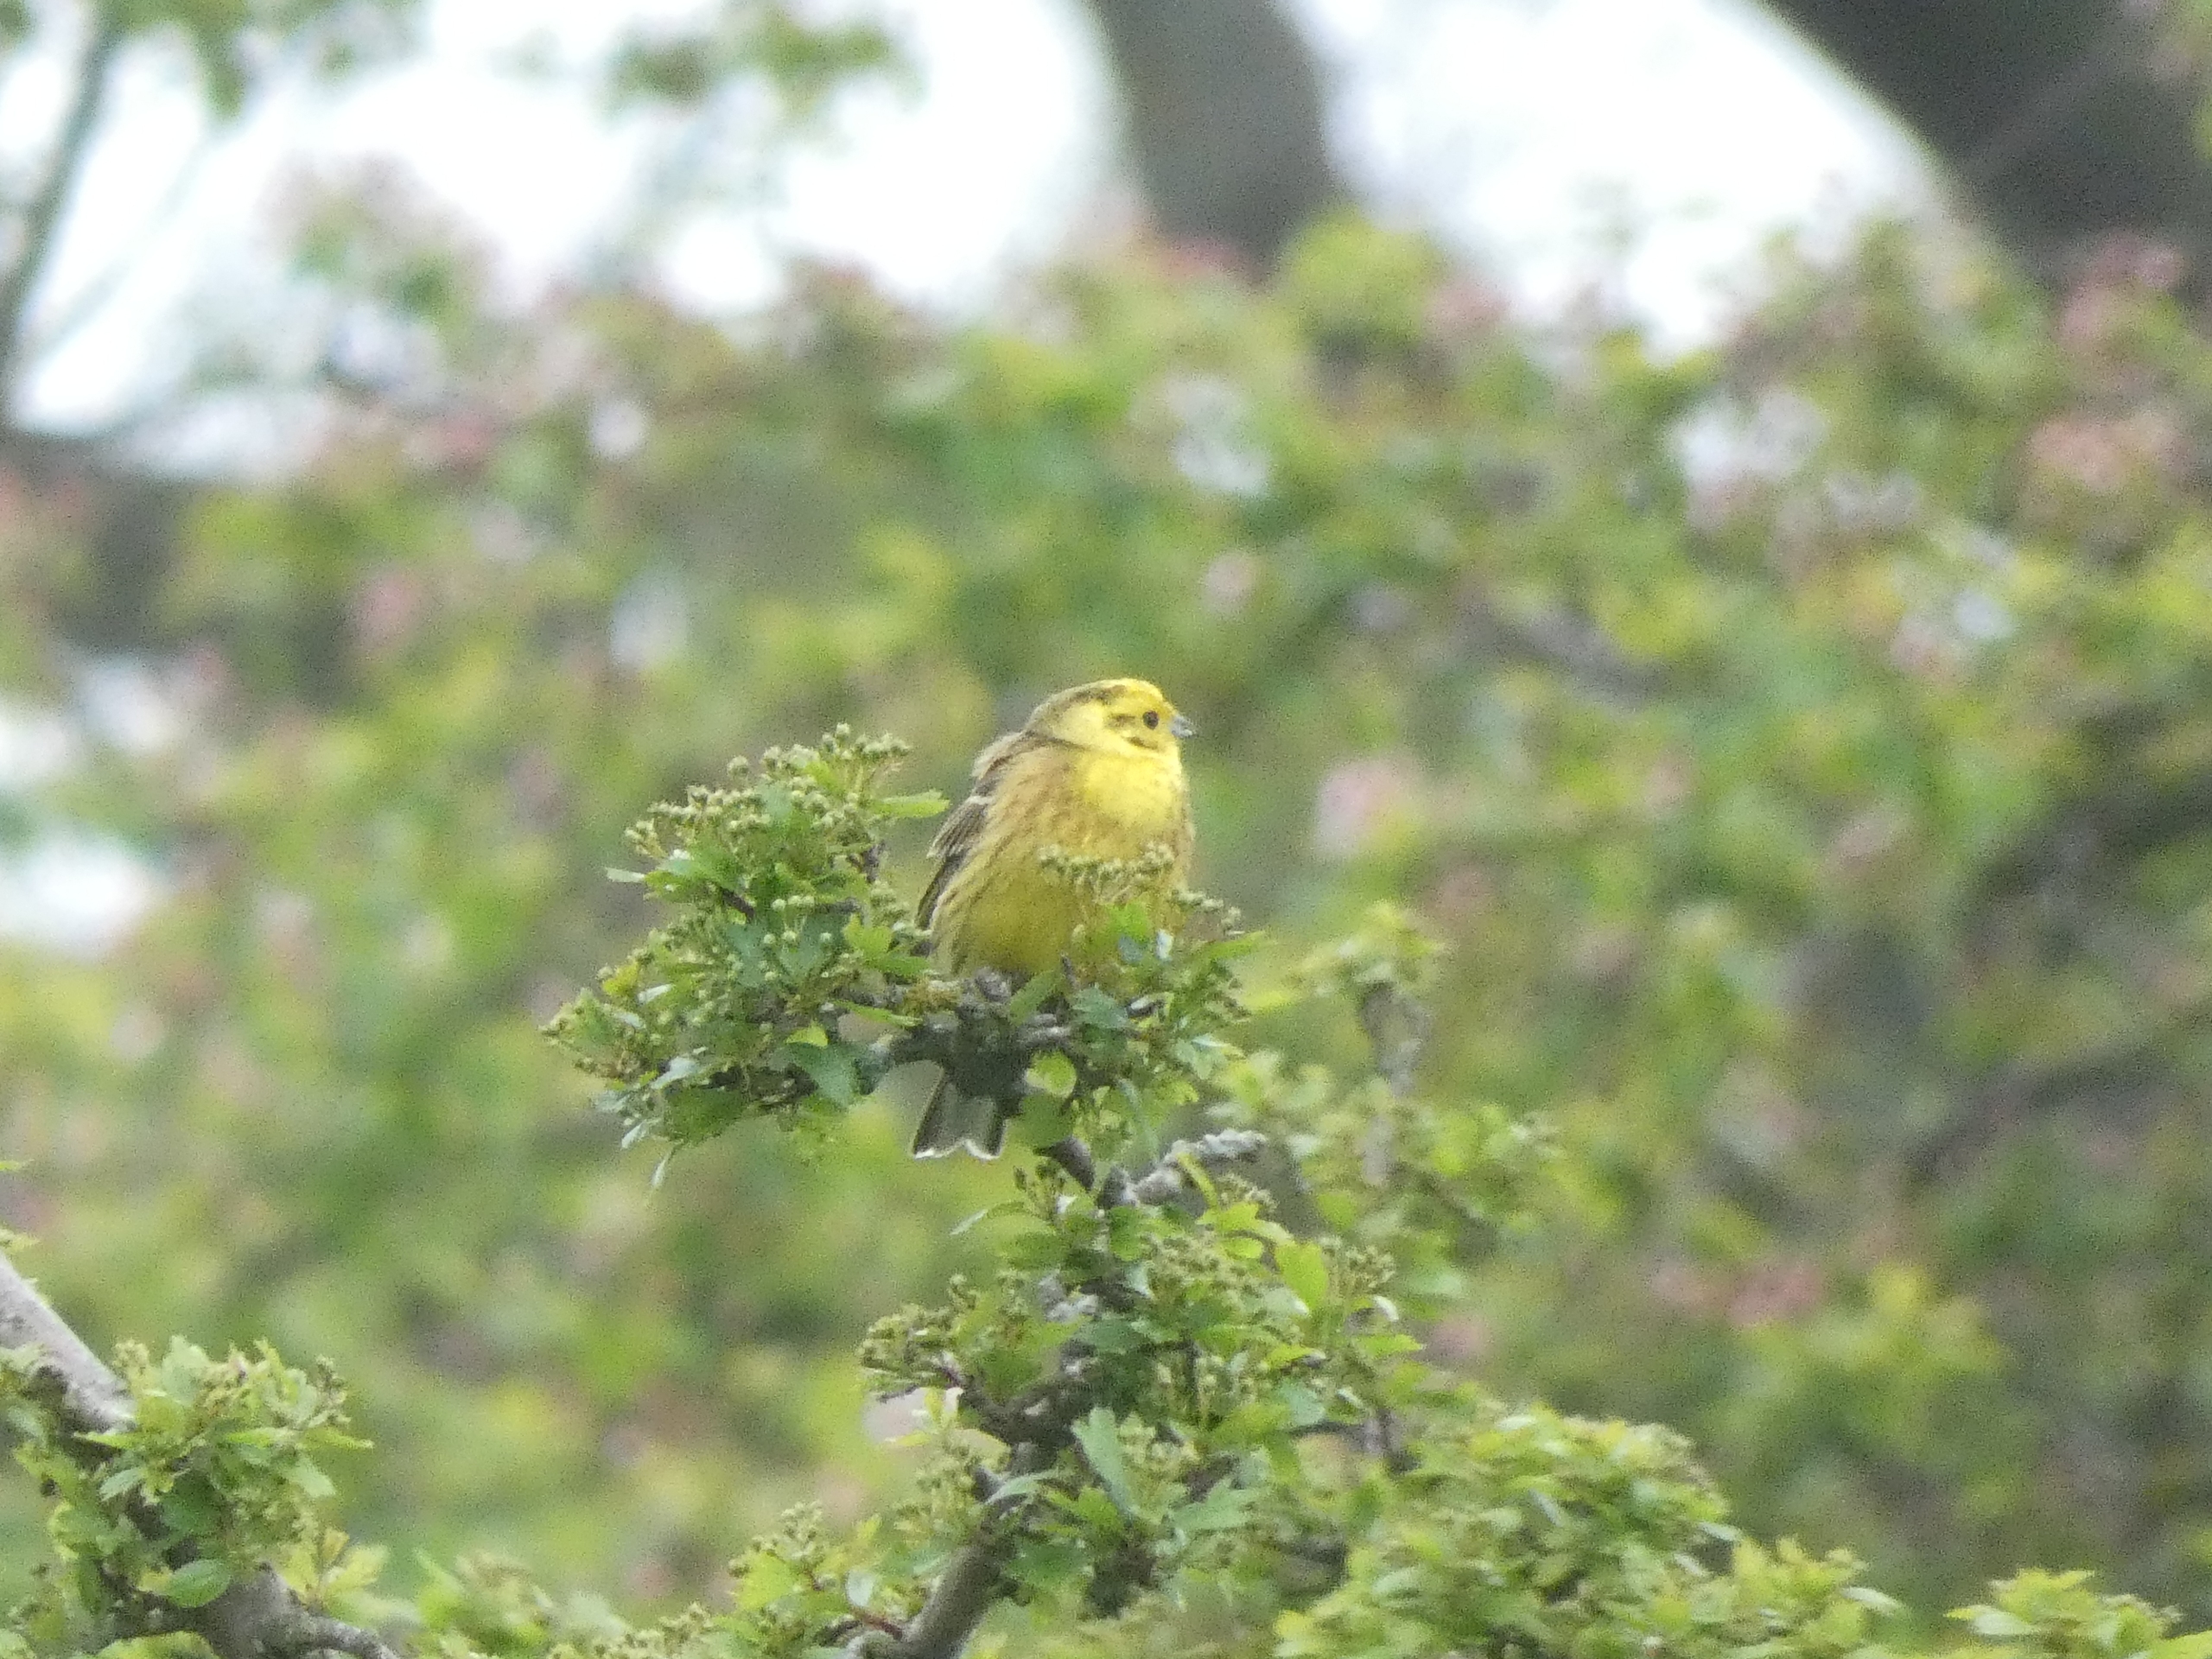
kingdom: Animalia
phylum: Chordata
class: Aves
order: Passeriformes
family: Emberizidae
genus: Emberiza
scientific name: Emberiza citrinella
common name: Gulspurv
